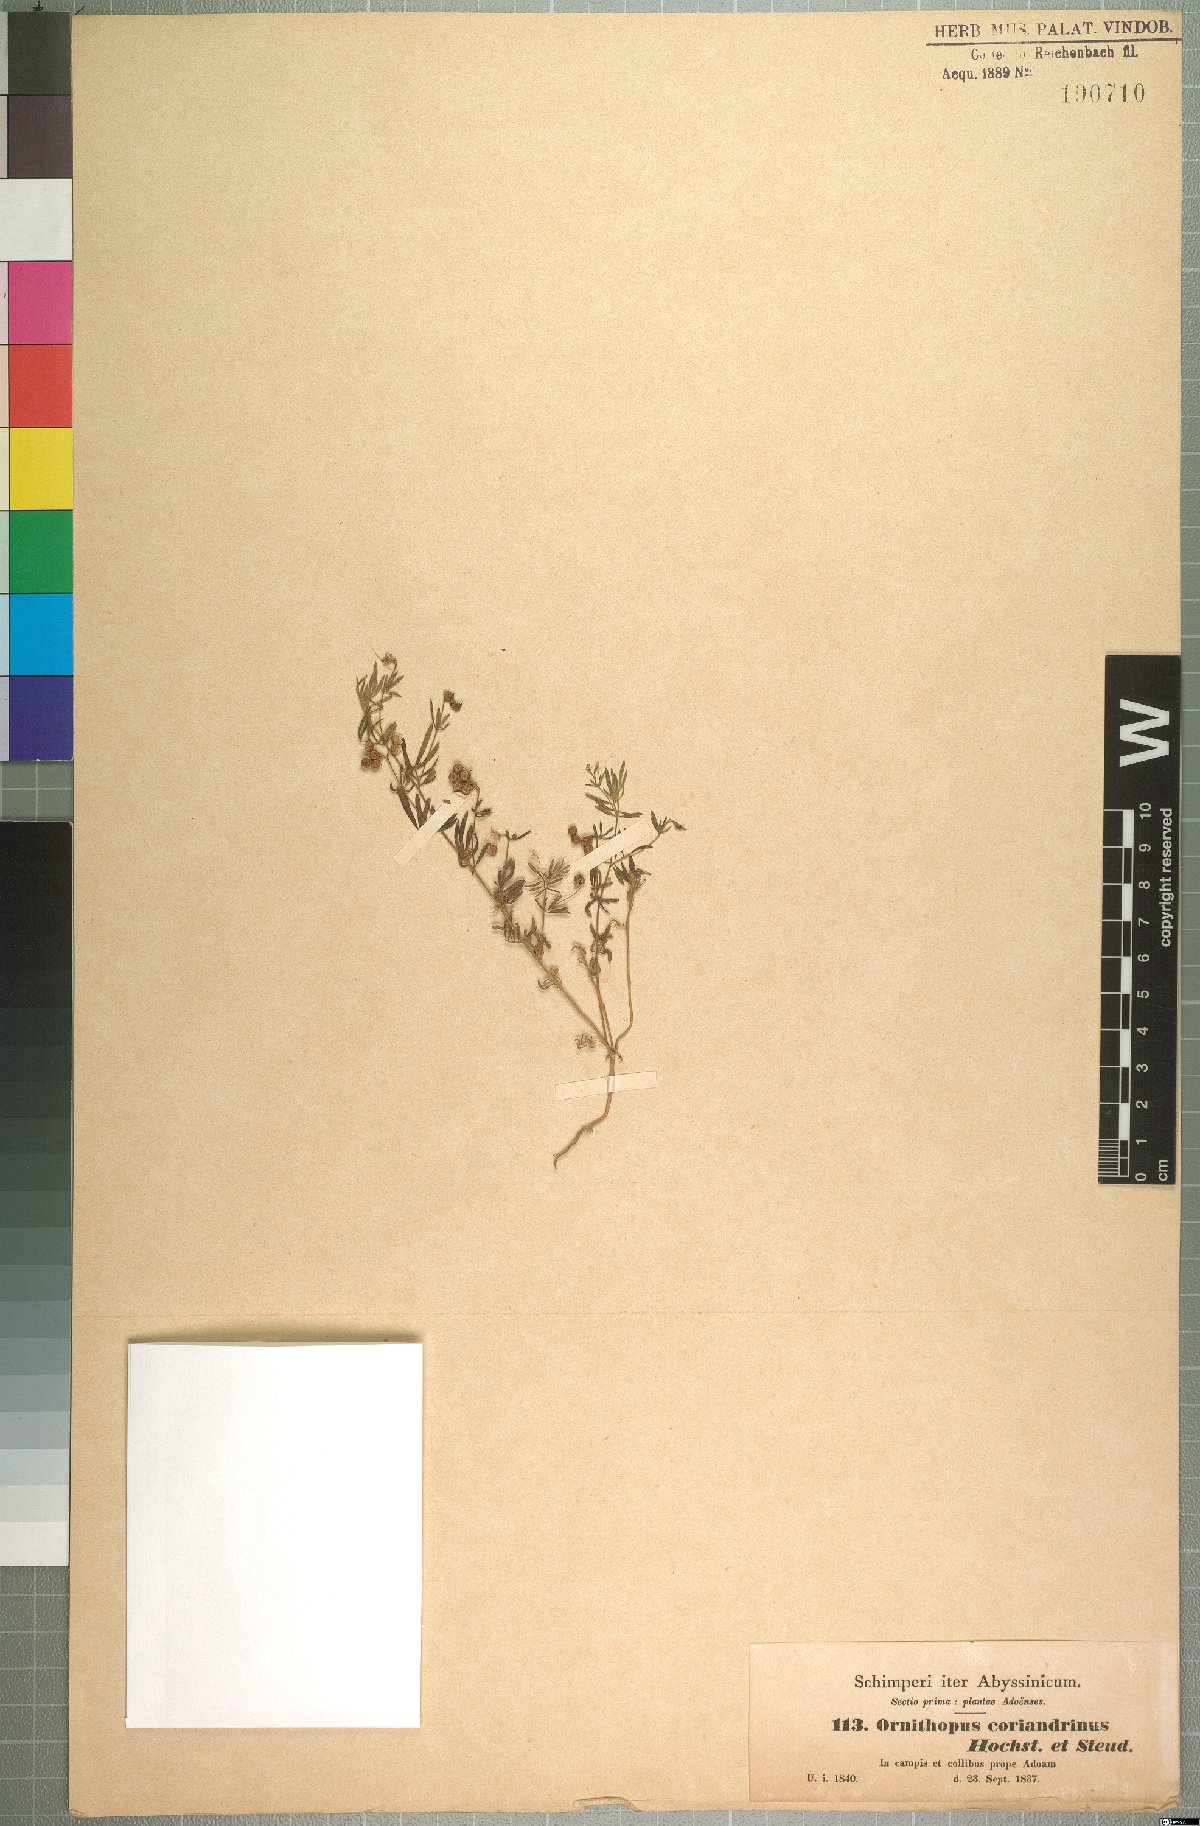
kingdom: Plantae
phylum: Tracheophyta
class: Magnoliopsida
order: Fabales
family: Fabaceae
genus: Antopetitia
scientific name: Antopetitia abyssinica
